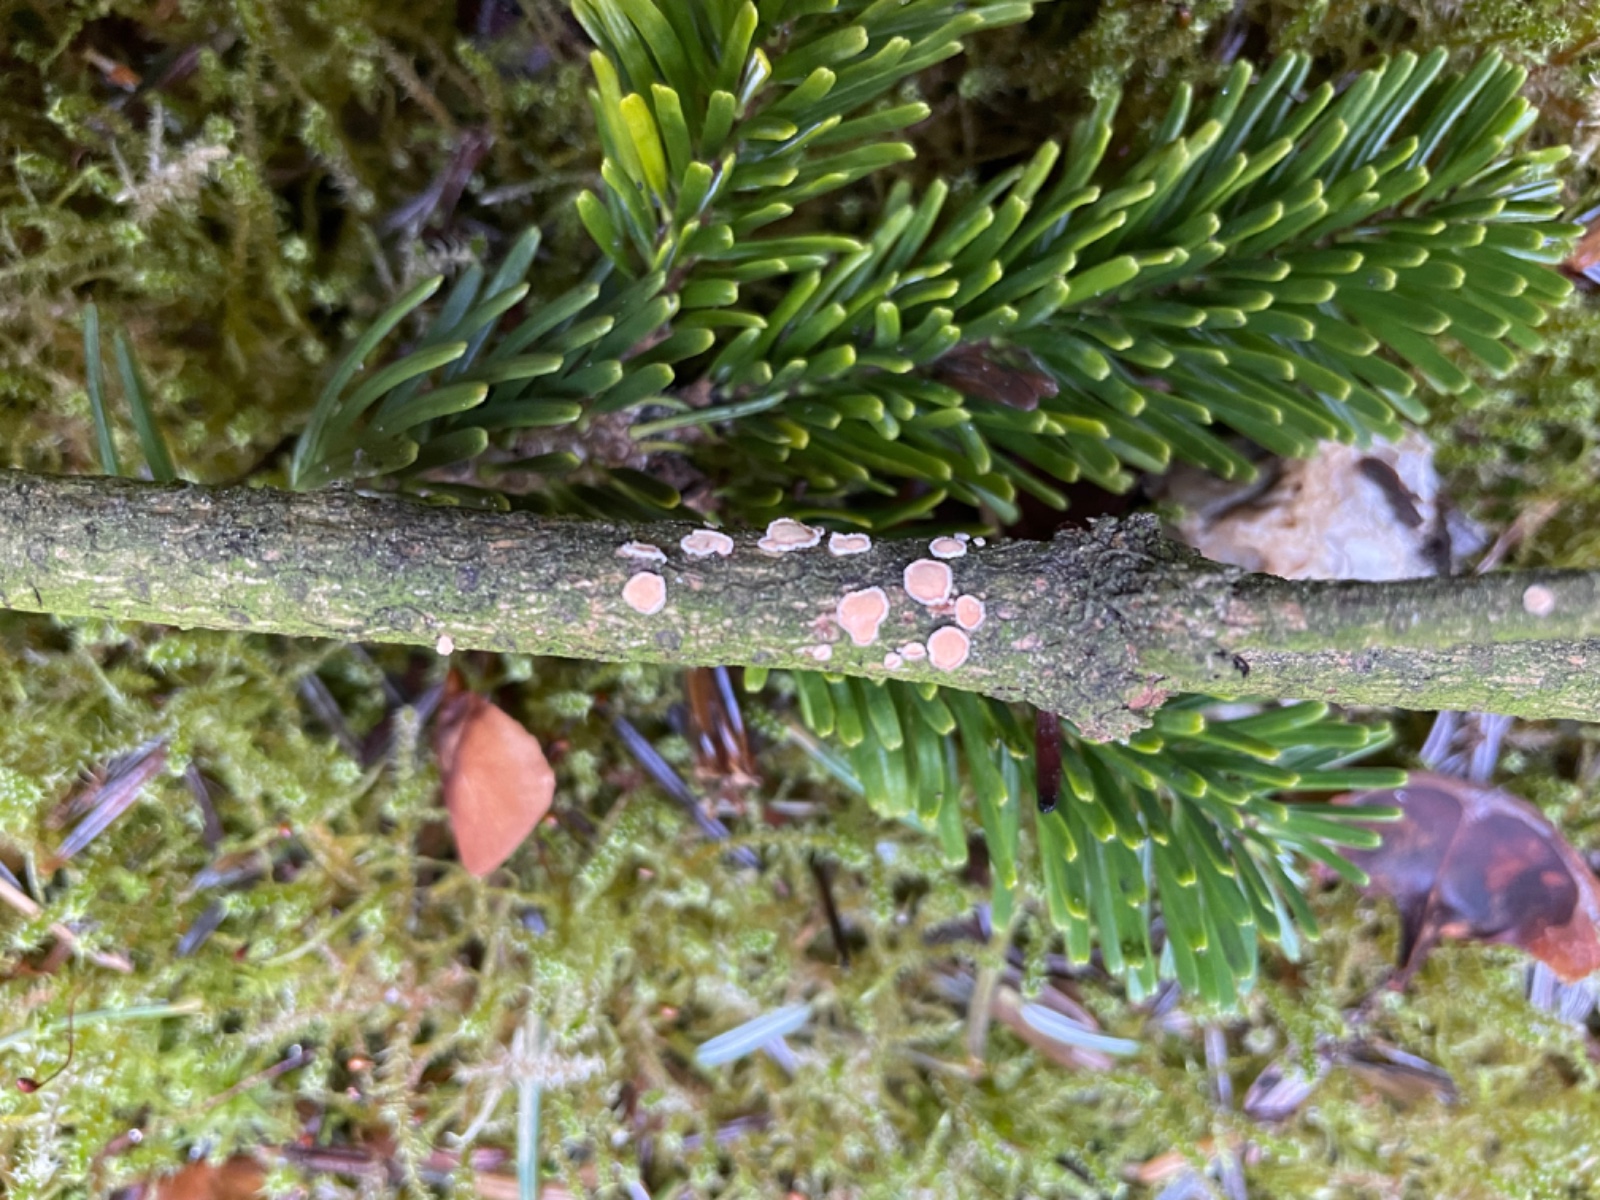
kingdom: Fungi
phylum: Basidiomycota
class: Agaricomycetes
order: Russulales
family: Stereaceae
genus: Aleurodiscus
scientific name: Aleurodiscus amorphus
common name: orange skiveskorpe
